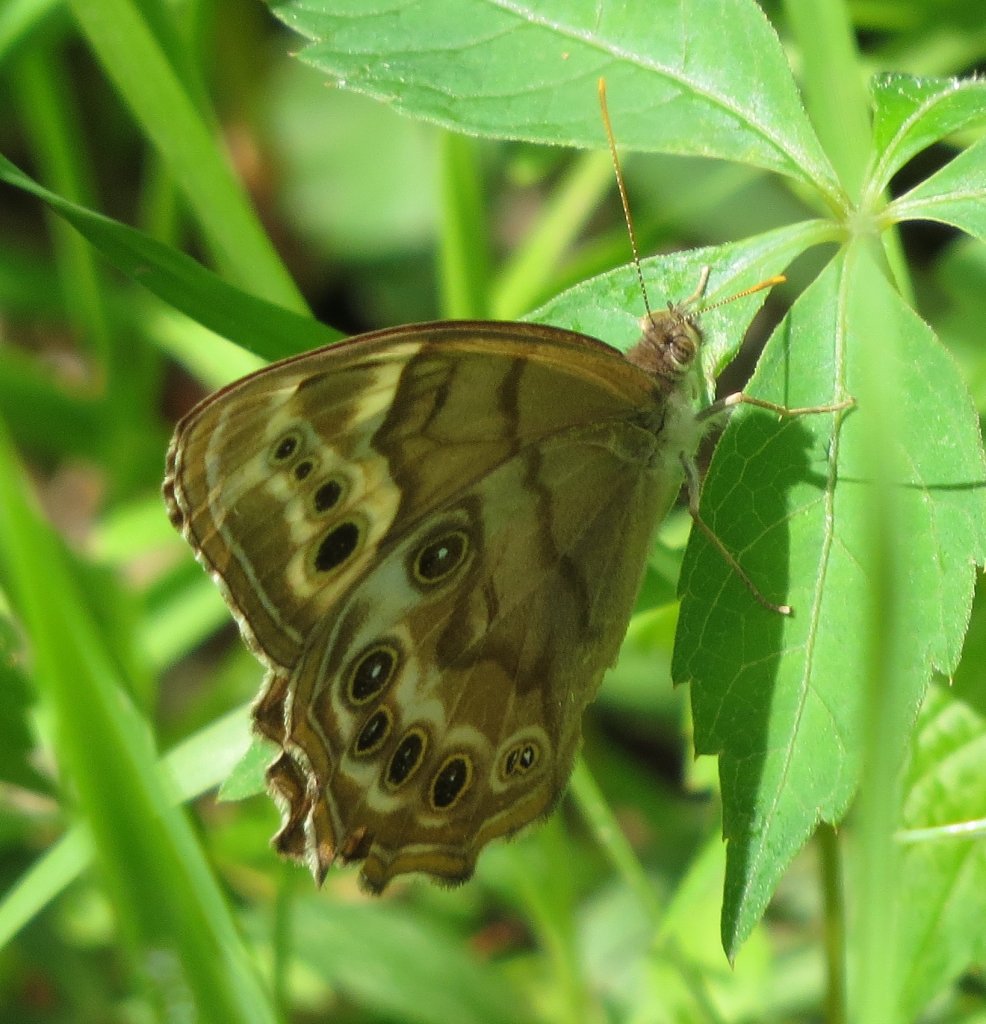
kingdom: Animalia
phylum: Arthropoda
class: Insecta
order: Lepidoptera
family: Nymphalidae
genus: Enodia
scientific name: Enodia portlandia
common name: Southern Pearly Eye
